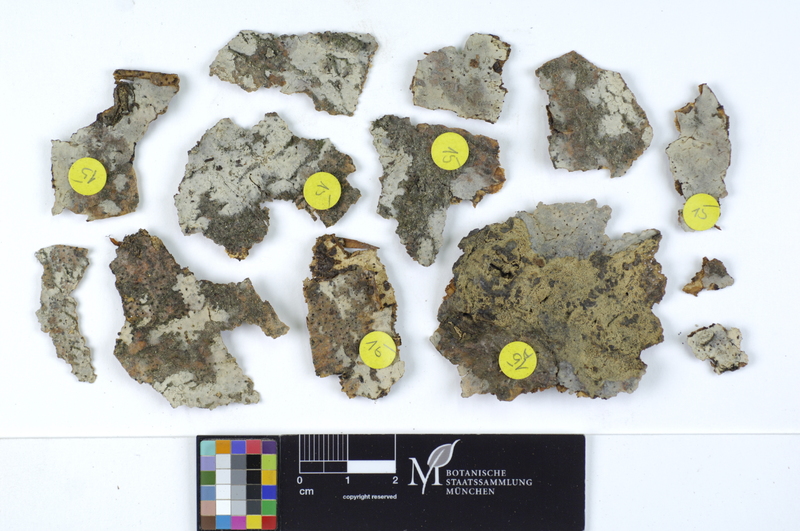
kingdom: Plantae
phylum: Tracheophyta
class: Magnoliopsida
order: Fagales
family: Fagaceae
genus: Fagus
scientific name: Fagus sylvatica
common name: Beech
